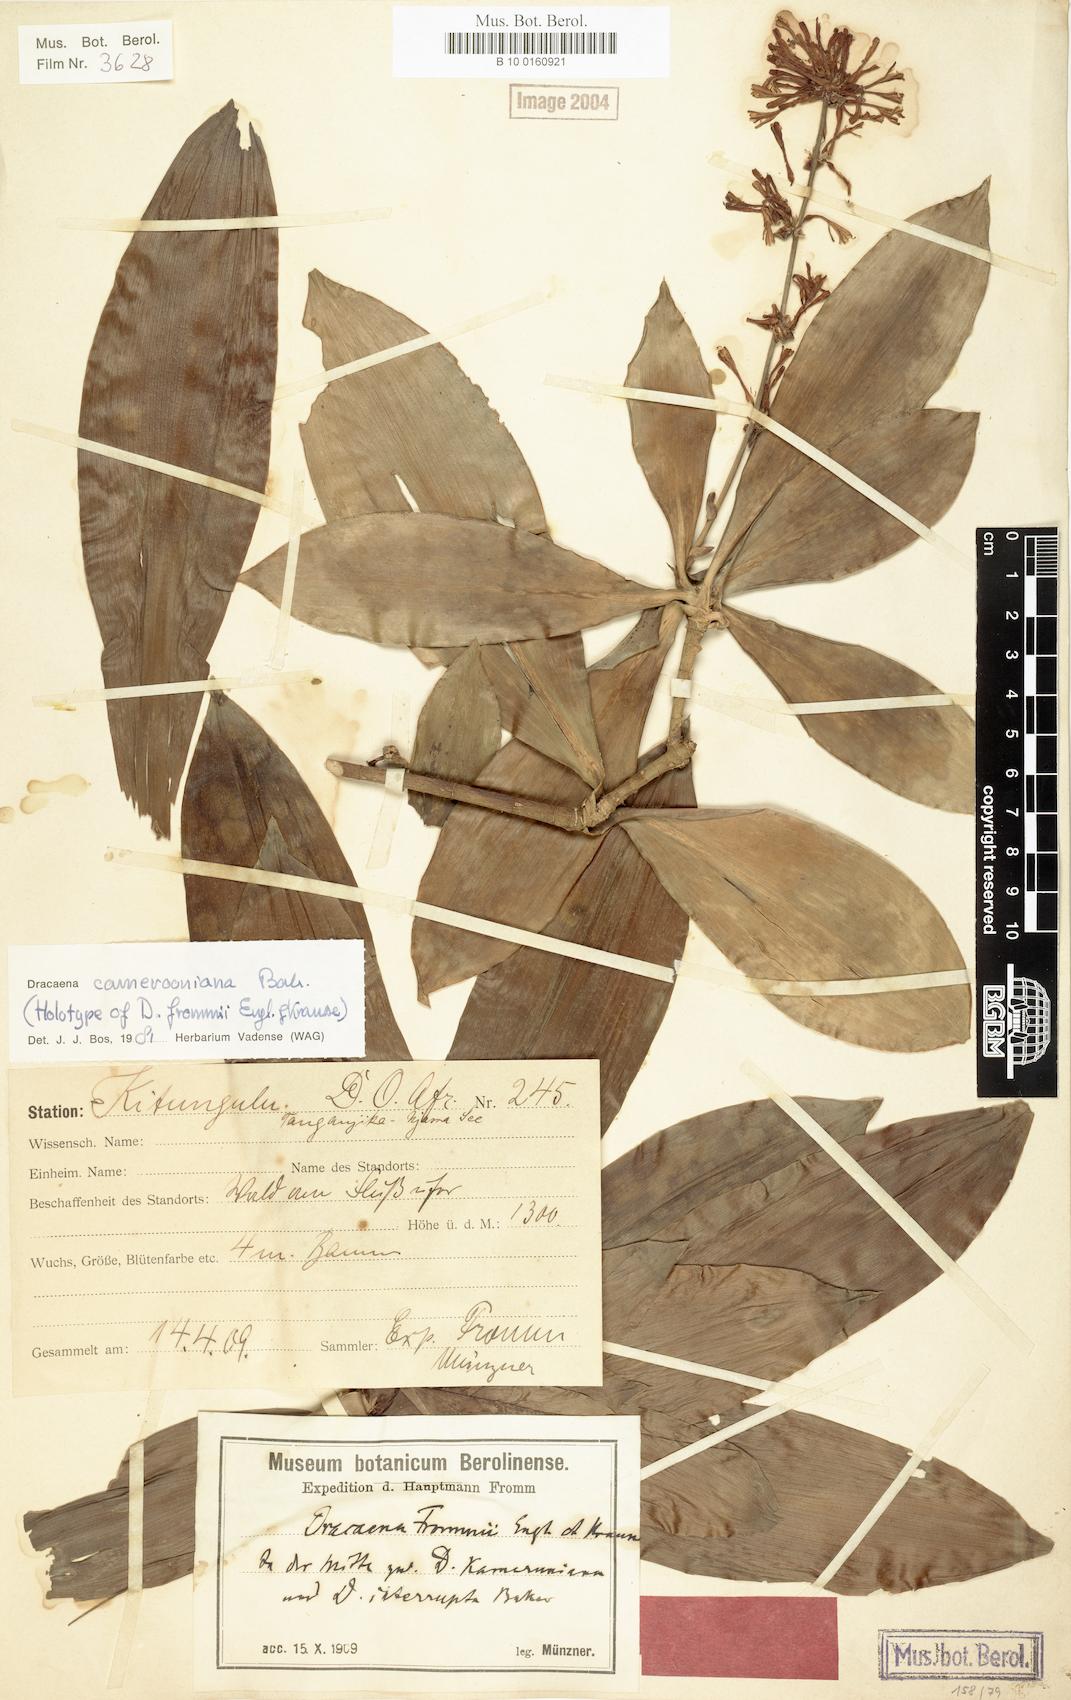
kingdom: Plantae
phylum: Tracheophyta
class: Liliopsida
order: Asparagales
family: Asparagaceae
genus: Dracaena
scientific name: Dracaena camerooniana
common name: Dragon tree
